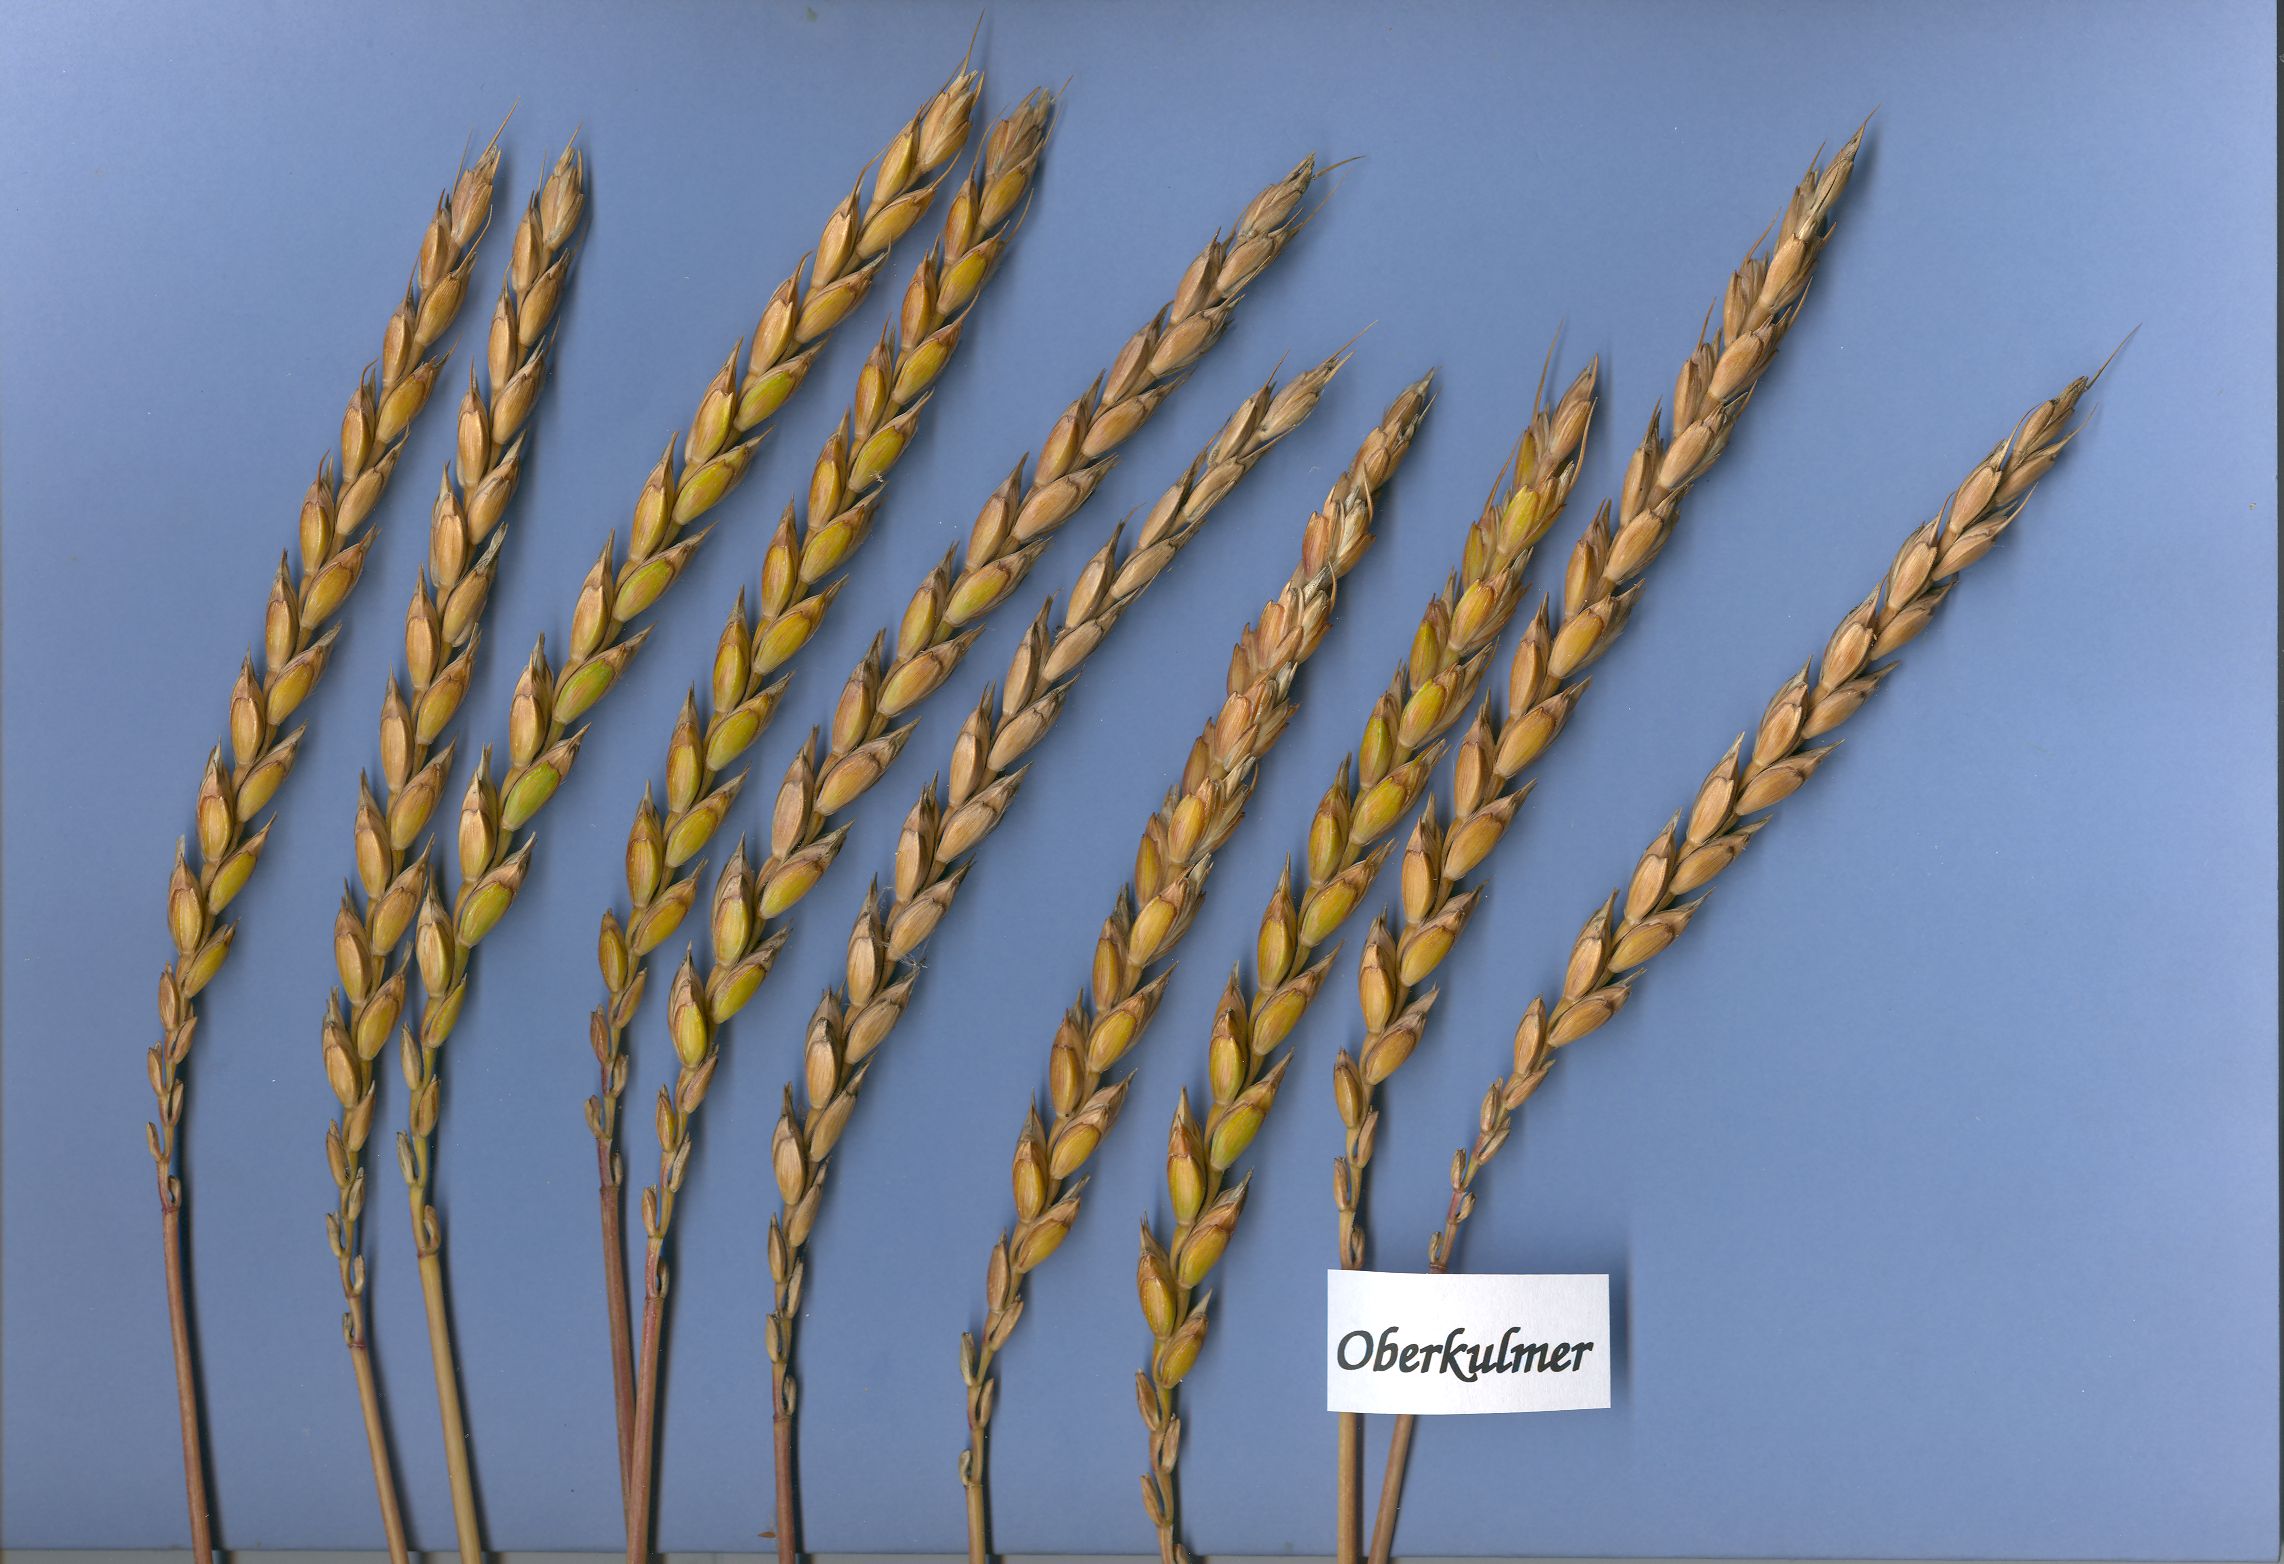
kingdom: Plantae
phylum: Tracheophyta
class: Liliopsida
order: Poales
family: Poaceae
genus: Triticum
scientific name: Triticum aestivum
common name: Common wheat
